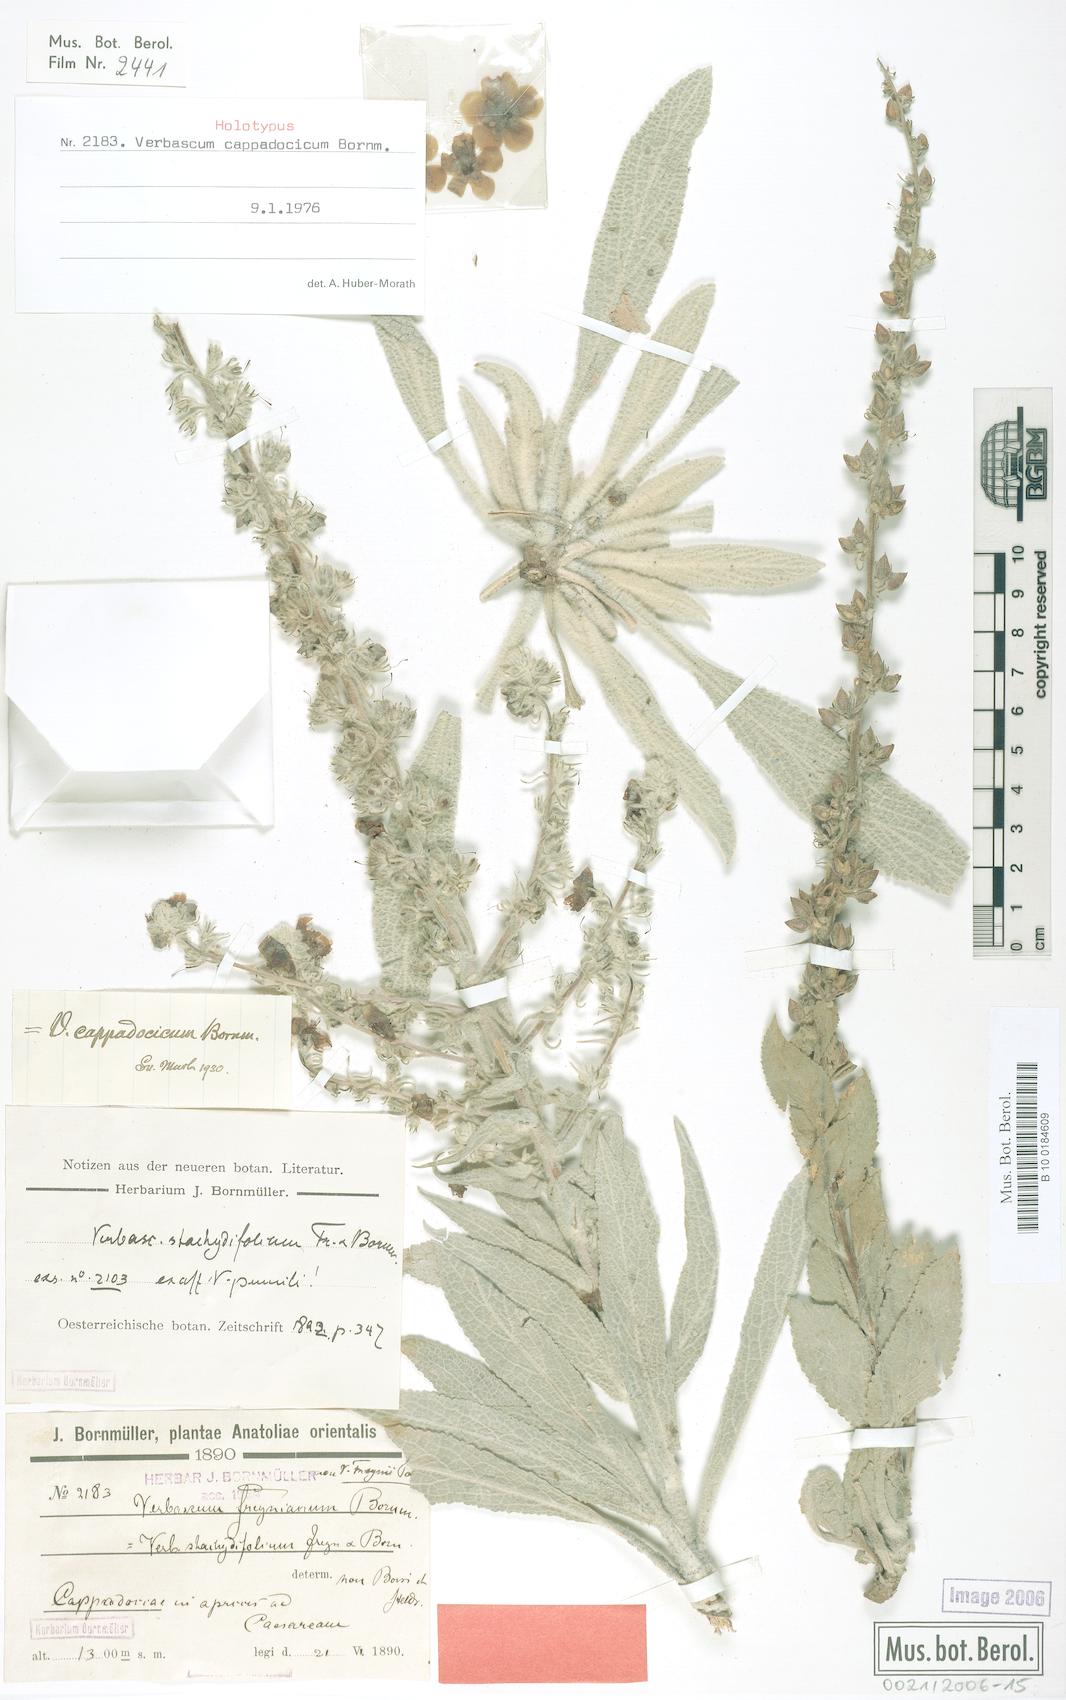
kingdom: Plantae
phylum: Tracheophyta
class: Magnoliopsida
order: Lamiales
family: Scrophulariaceae
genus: Verbascum
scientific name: Verbascum cappadocicum
